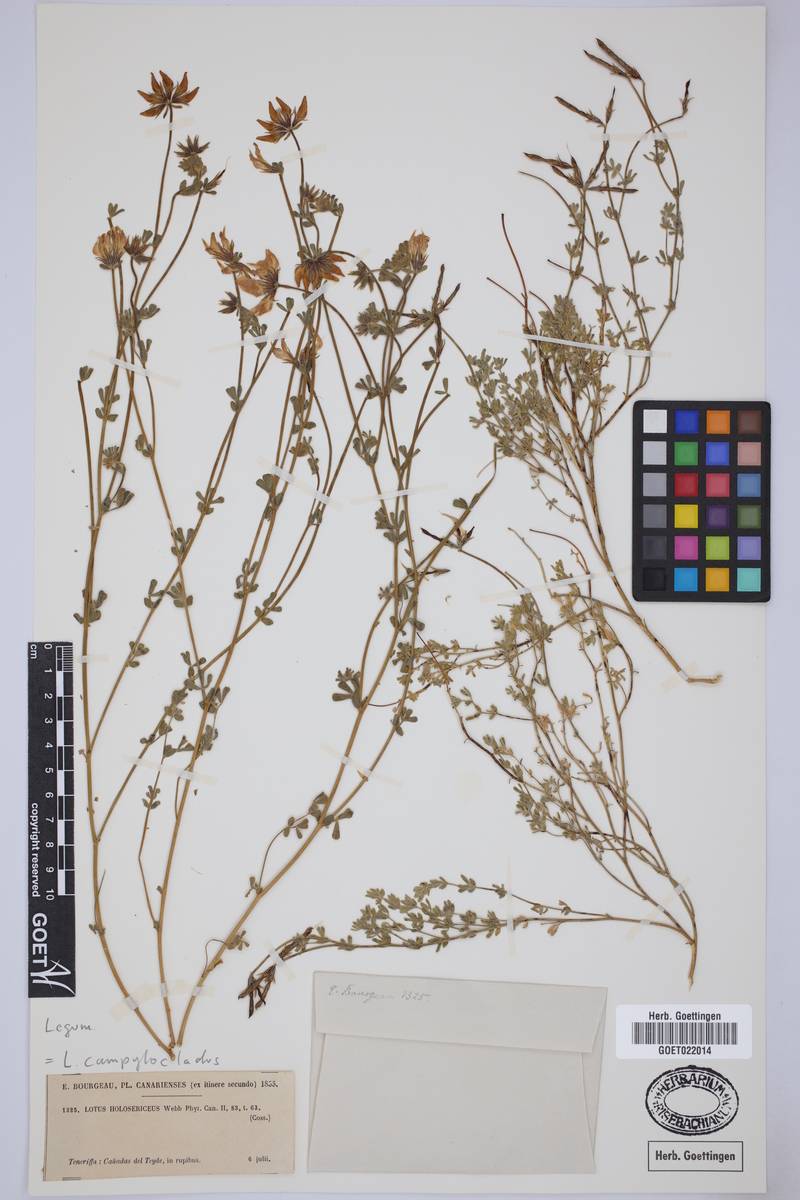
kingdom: Plantae
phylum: Tracheophyta
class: Magnoliopsida
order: Fabales
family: Fabaceae
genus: Lotus
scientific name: Lotus campylocladus
